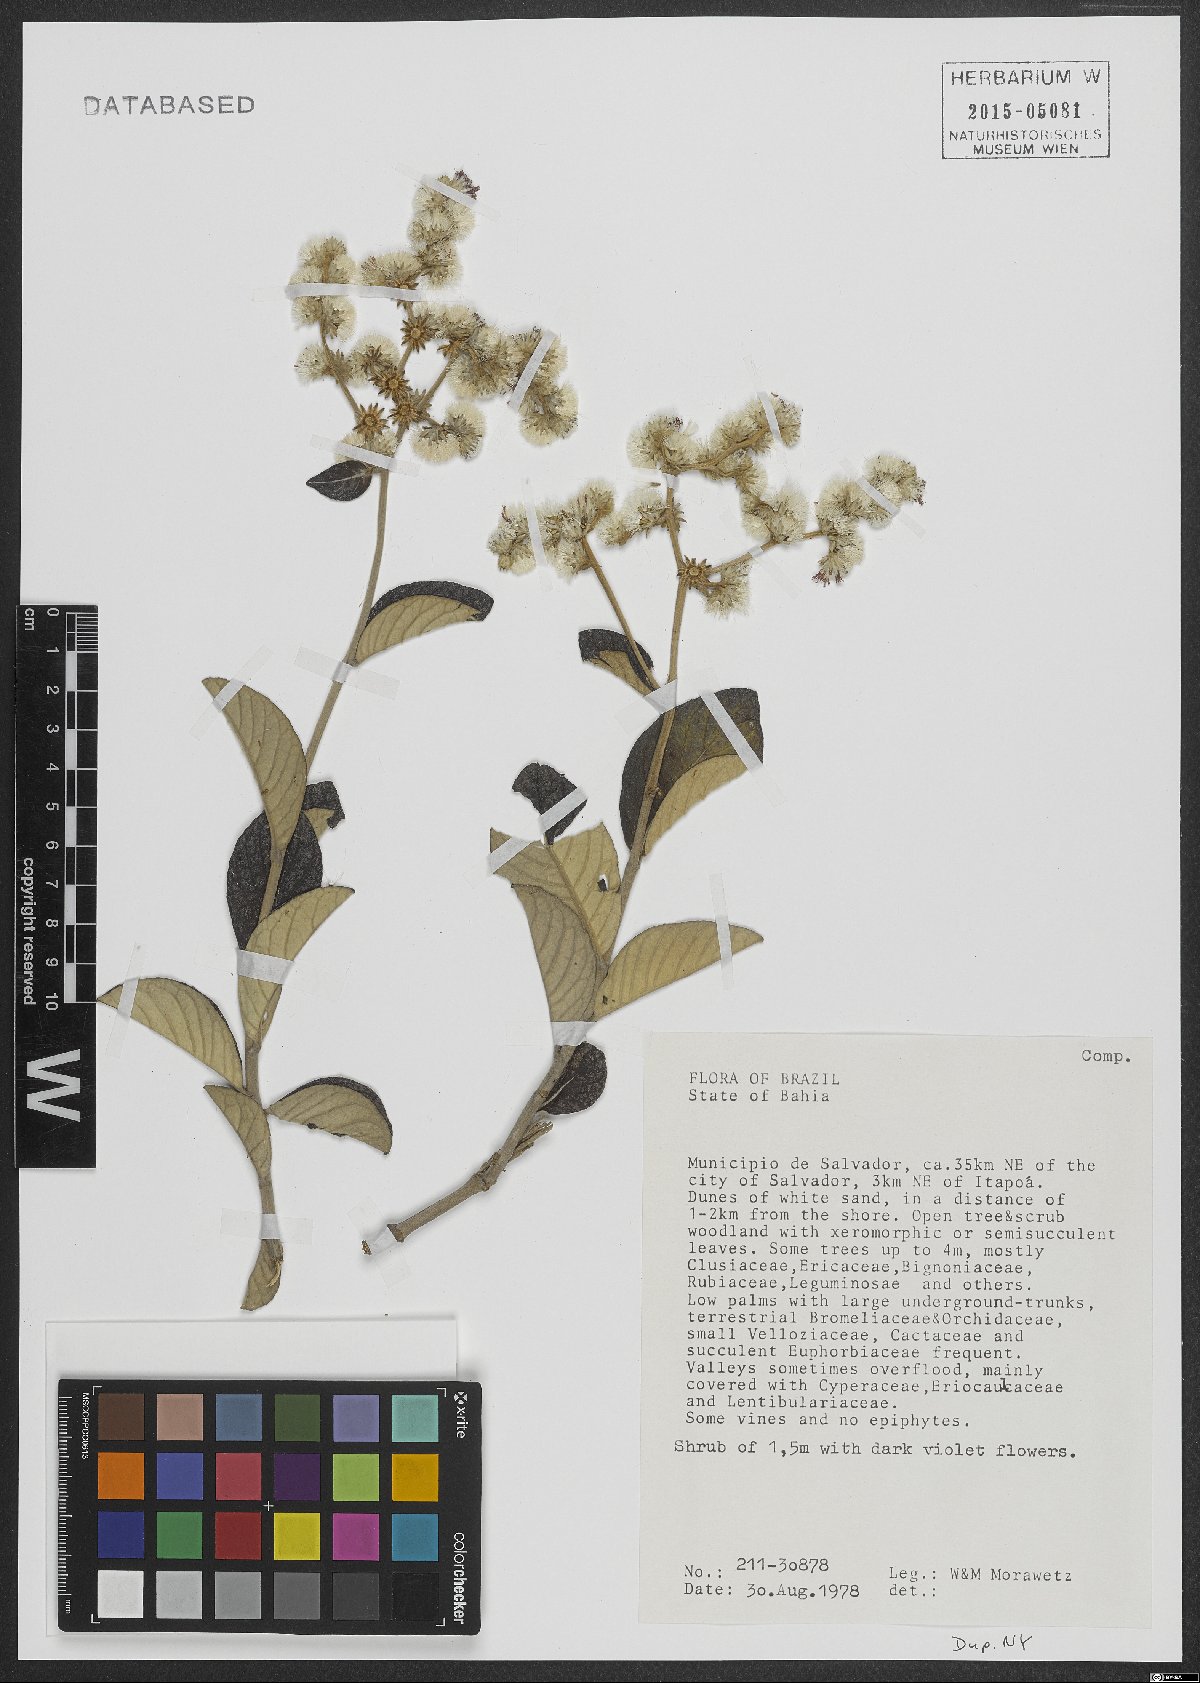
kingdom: Plantae
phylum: Tracheophyta
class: Magnoliopsida
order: Asterales
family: Asteraceae
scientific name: Asteraceae
